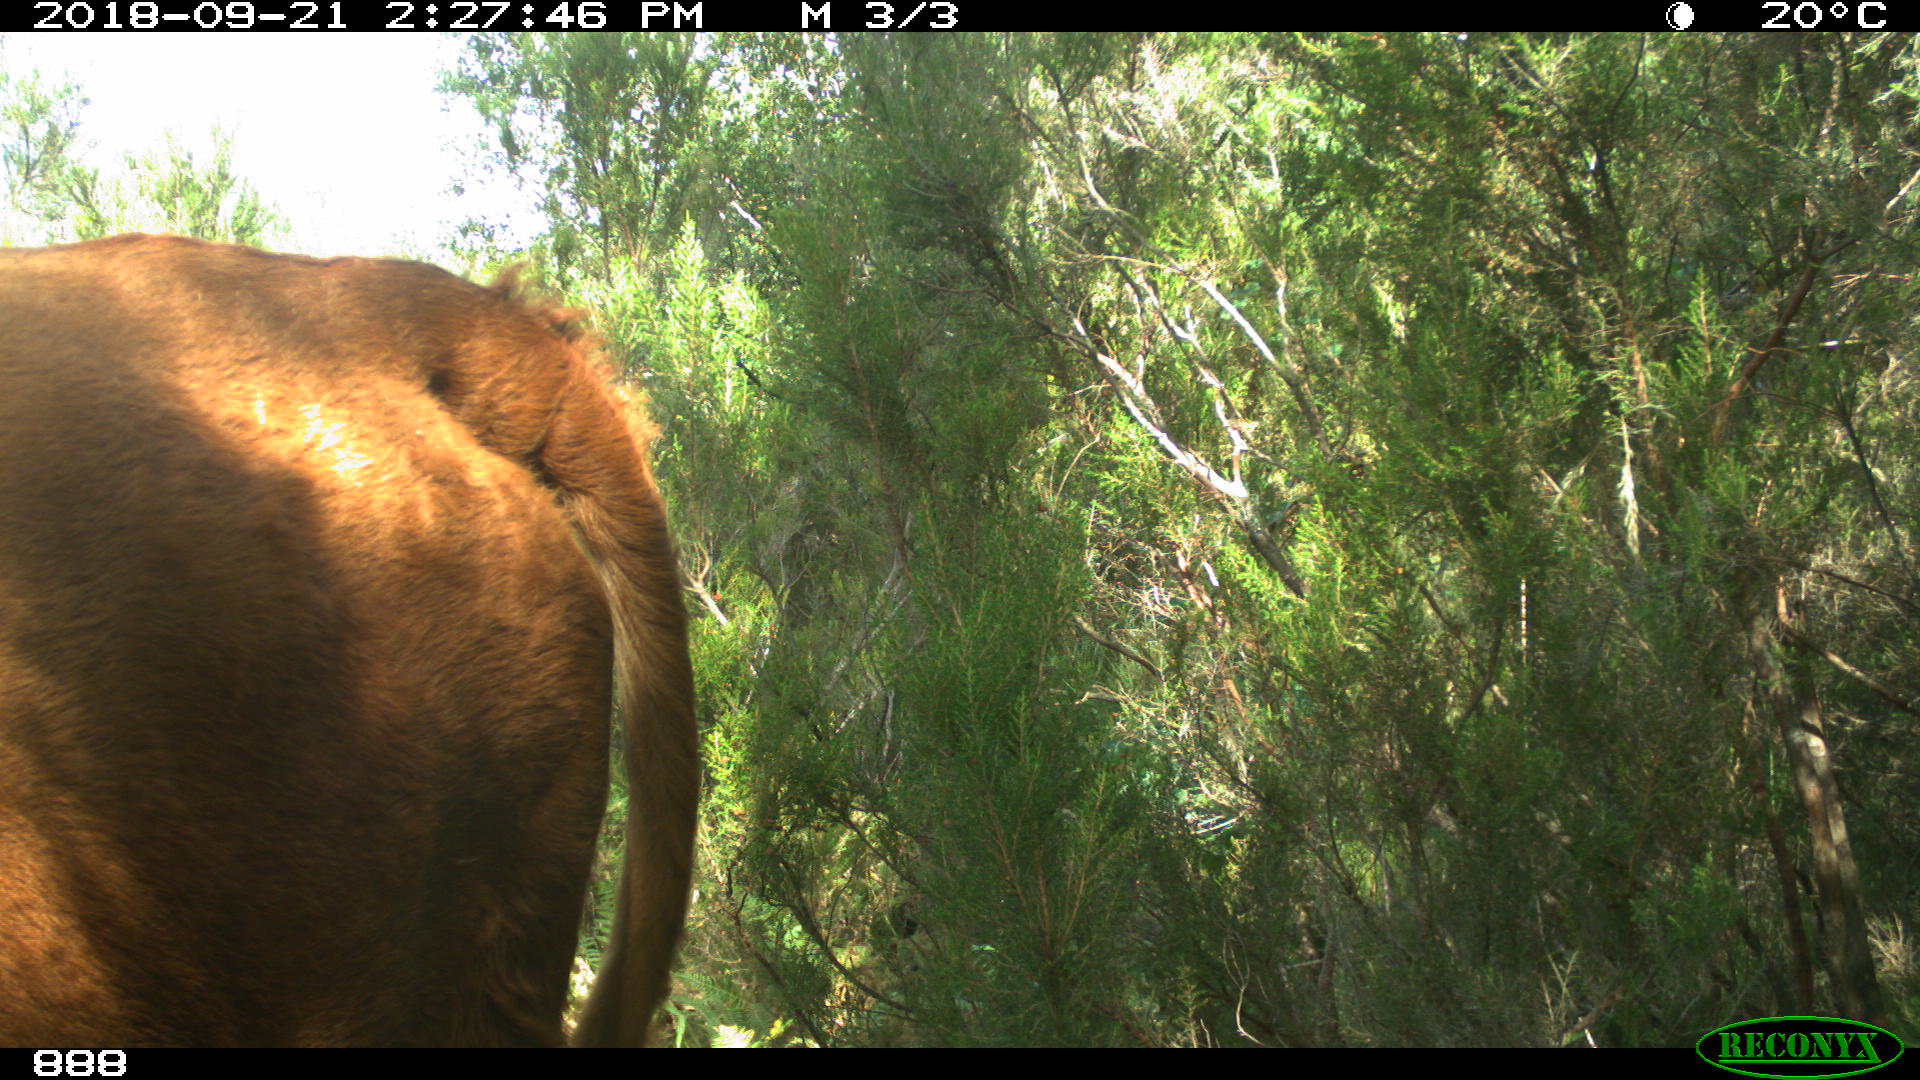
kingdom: Animalia
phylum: Chordata
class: Mammalia
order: Artiodactyla
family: Bovidae
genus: Bos
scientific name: Bos taurus
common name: Domesticated cattle
